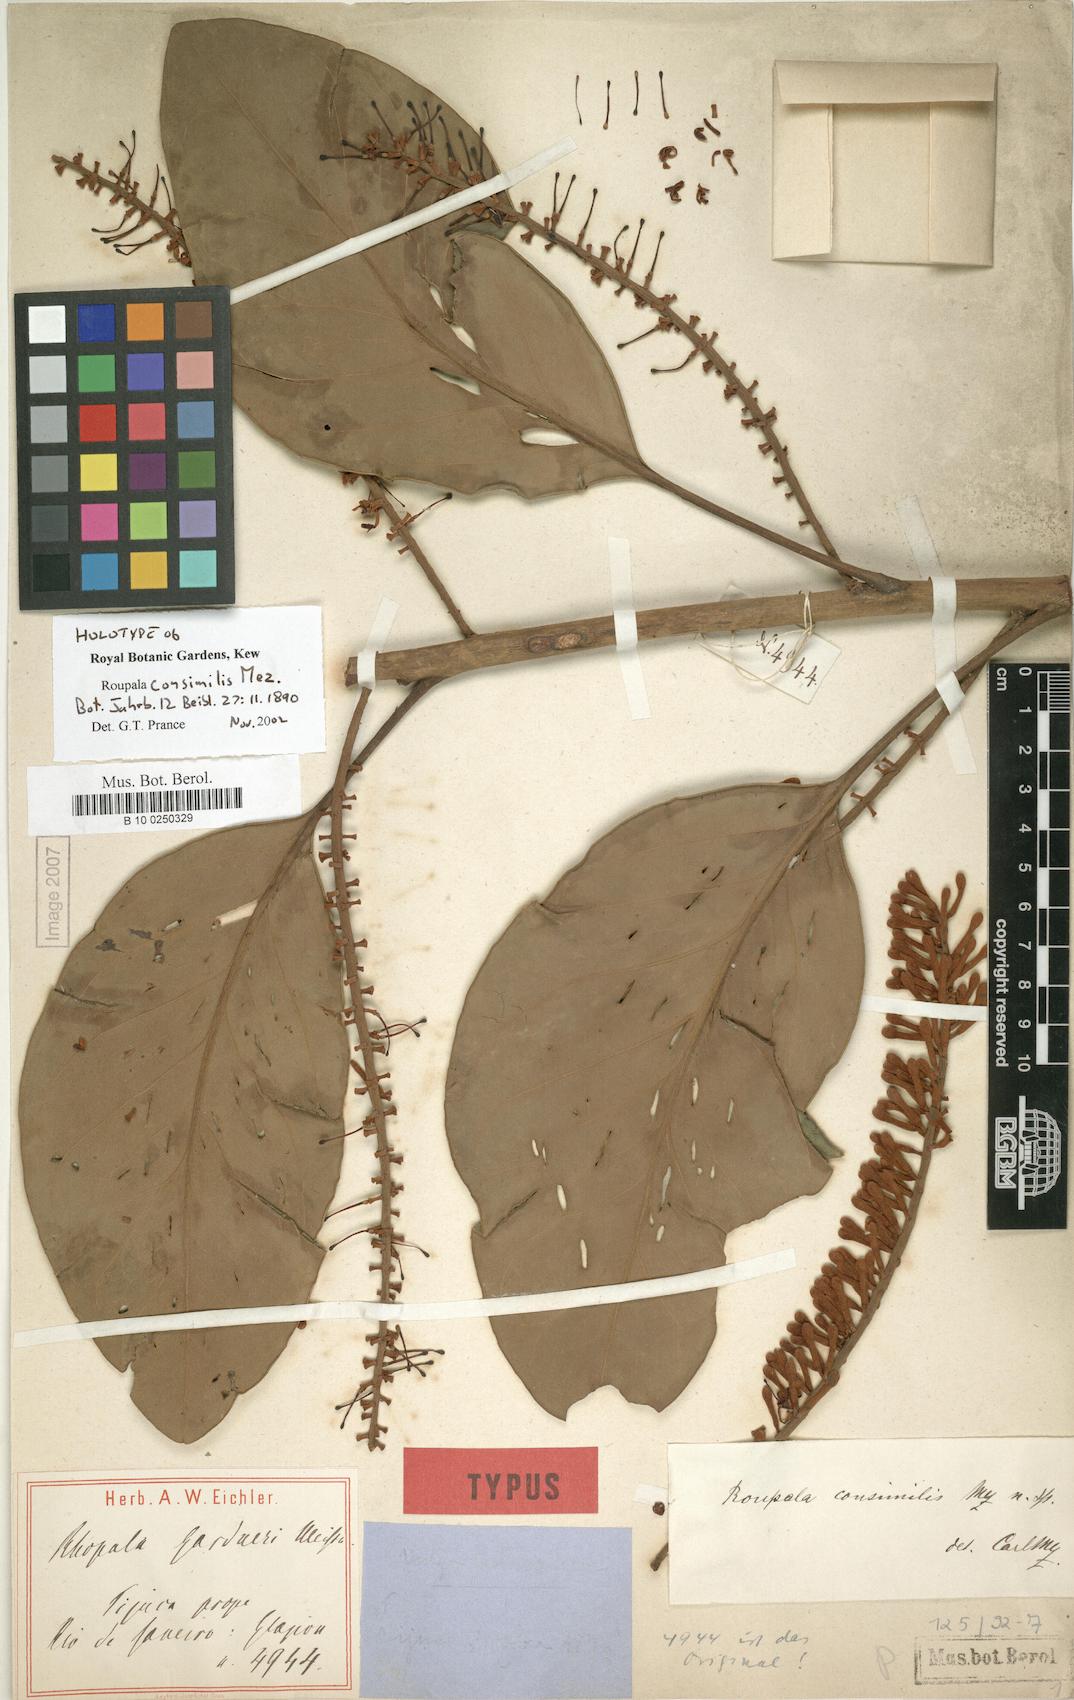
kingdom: Plantae
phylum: Tracheophyta
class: Magnoliopsida
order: Proteales
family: Proteaceae
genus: Roupala
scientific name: Roupala consimilis
